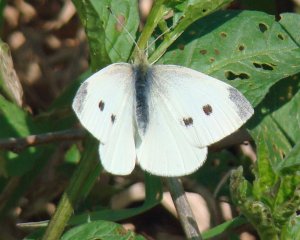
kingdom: Animalia
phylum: Arthropoda
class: Insecta
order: Lepidoptera
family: Pieridae
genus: Pieris
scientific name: Pieris rapae
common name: Cabbage White
